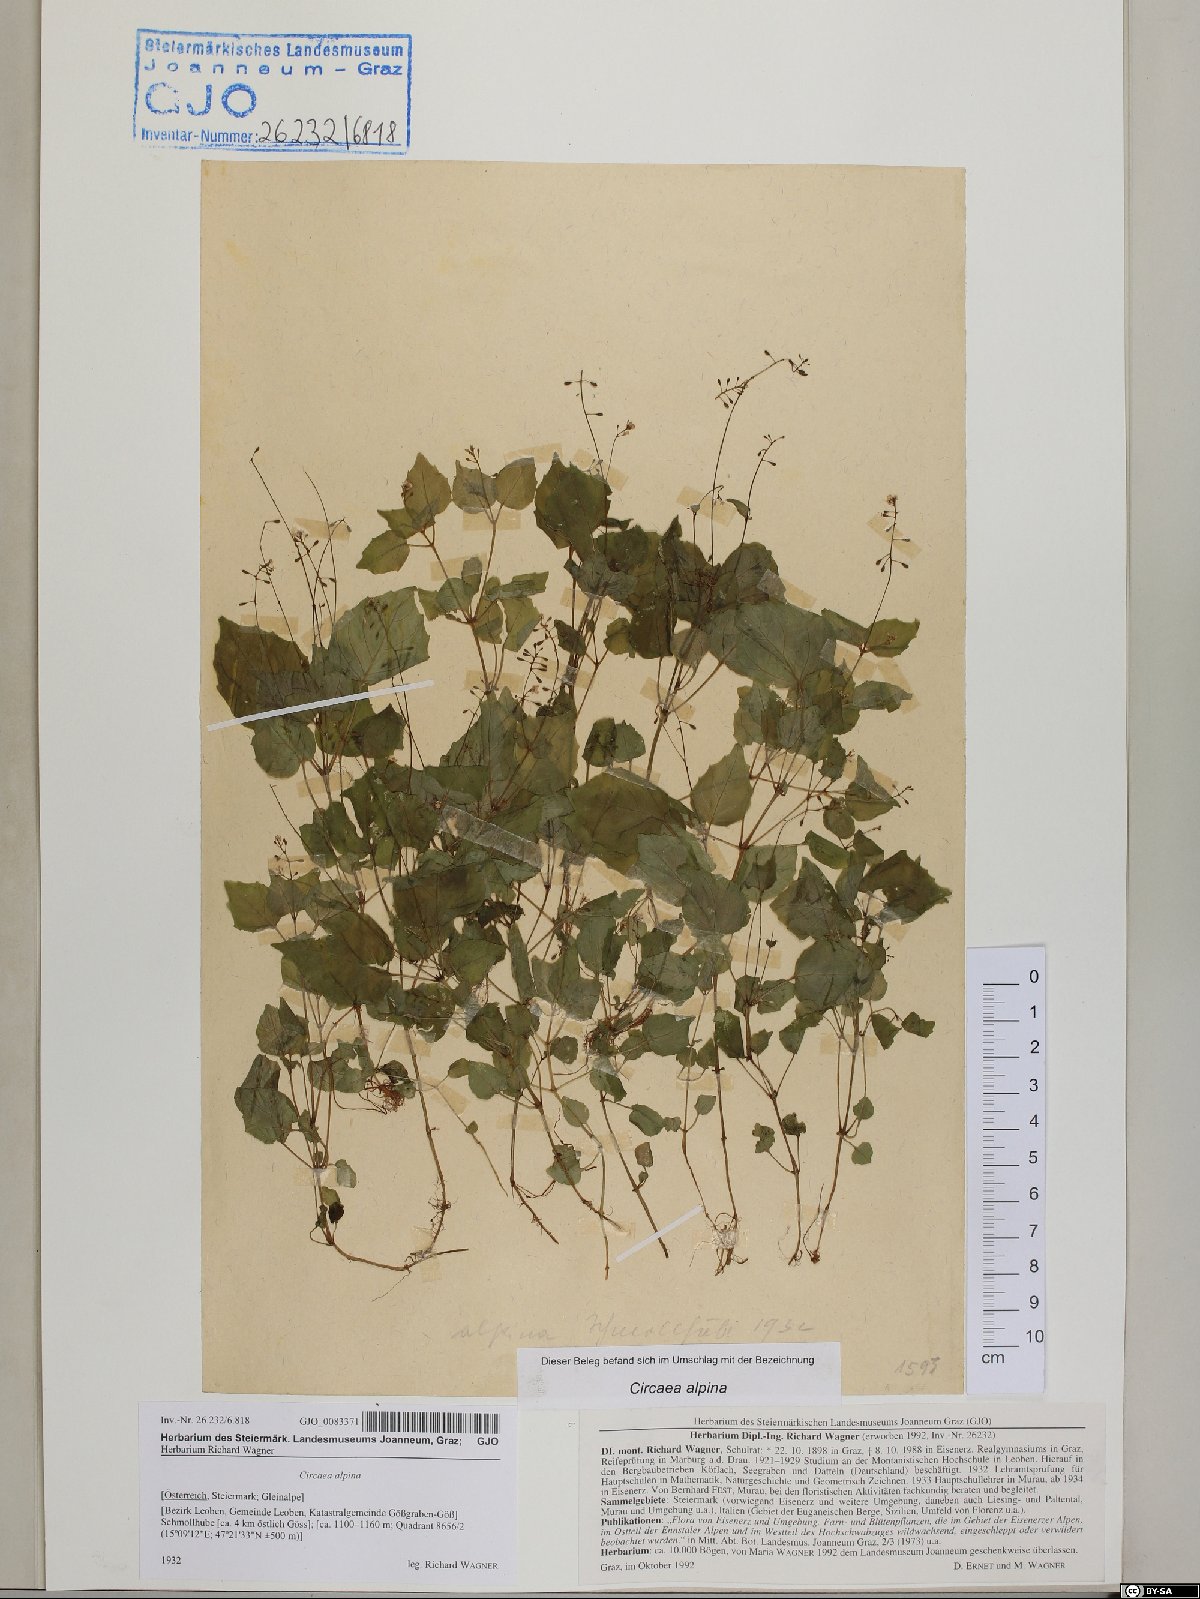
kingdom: Plantae
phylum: Tracheophyta
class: Magnoliopsida
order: Myrtales
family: Onagraceae
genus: Circaea
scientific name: Circaea alpina
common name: Alpine enchanter's-nightshade
